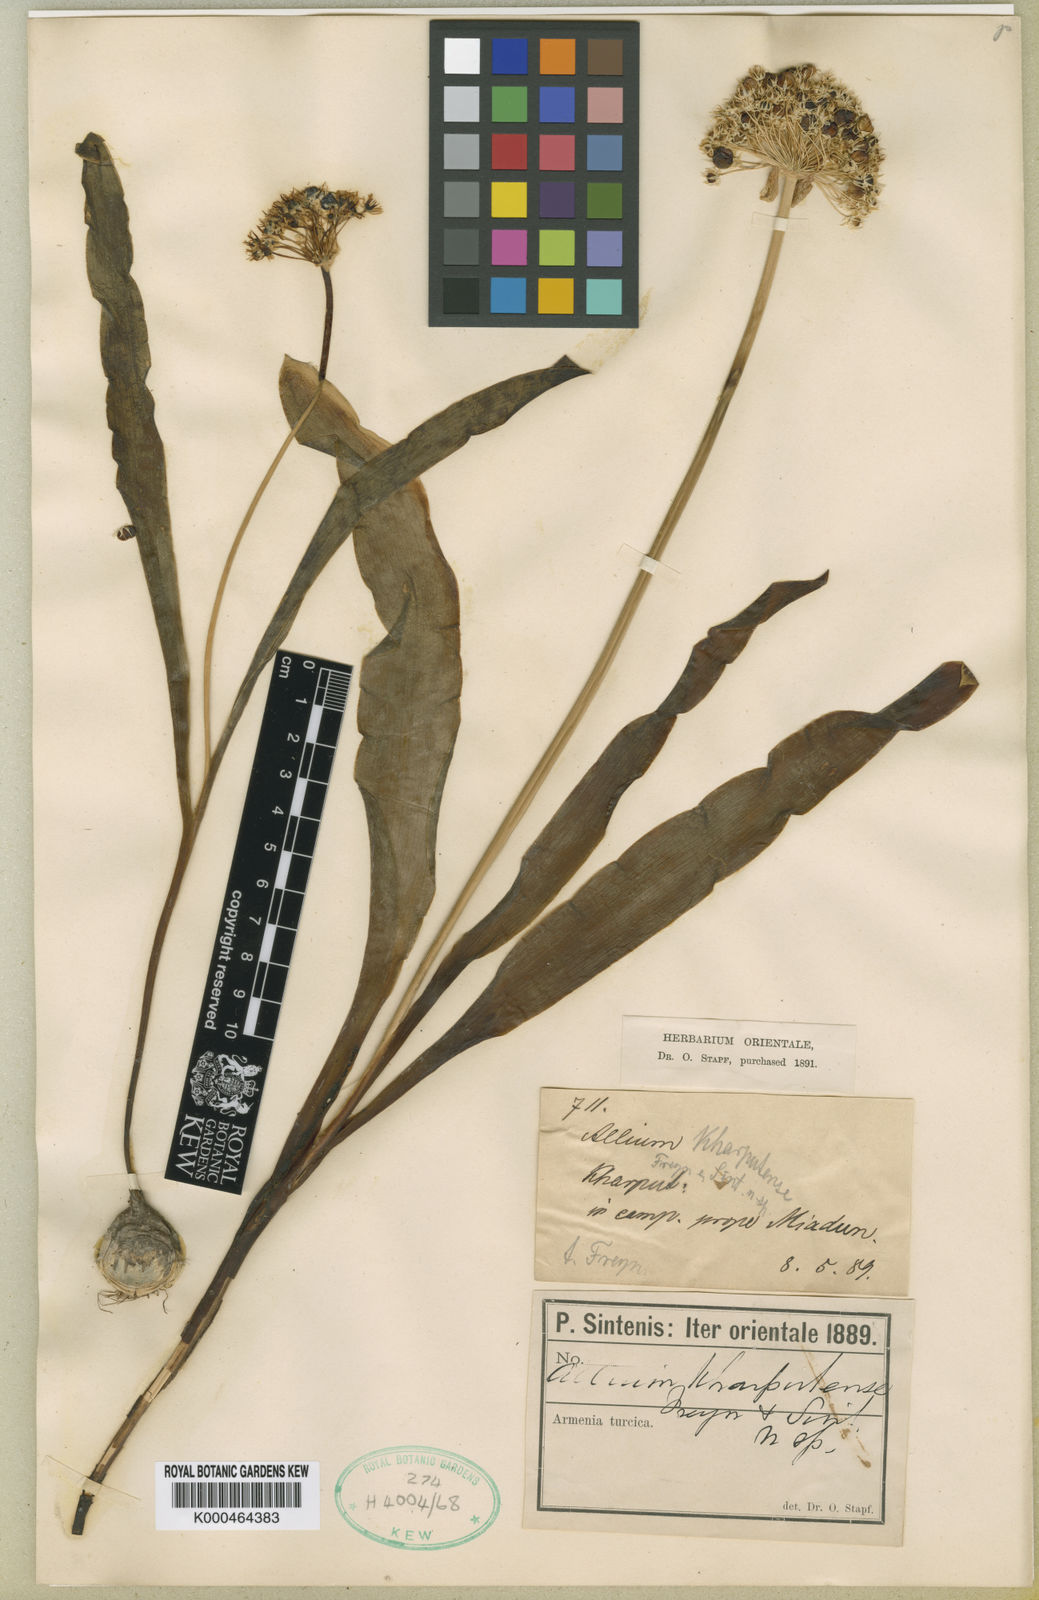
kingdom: Plantae
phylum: Tracheophyta
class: Liliopsida
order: Asparagales
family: Amaryllidaceae
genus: Allium
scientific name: Allium kharputense
